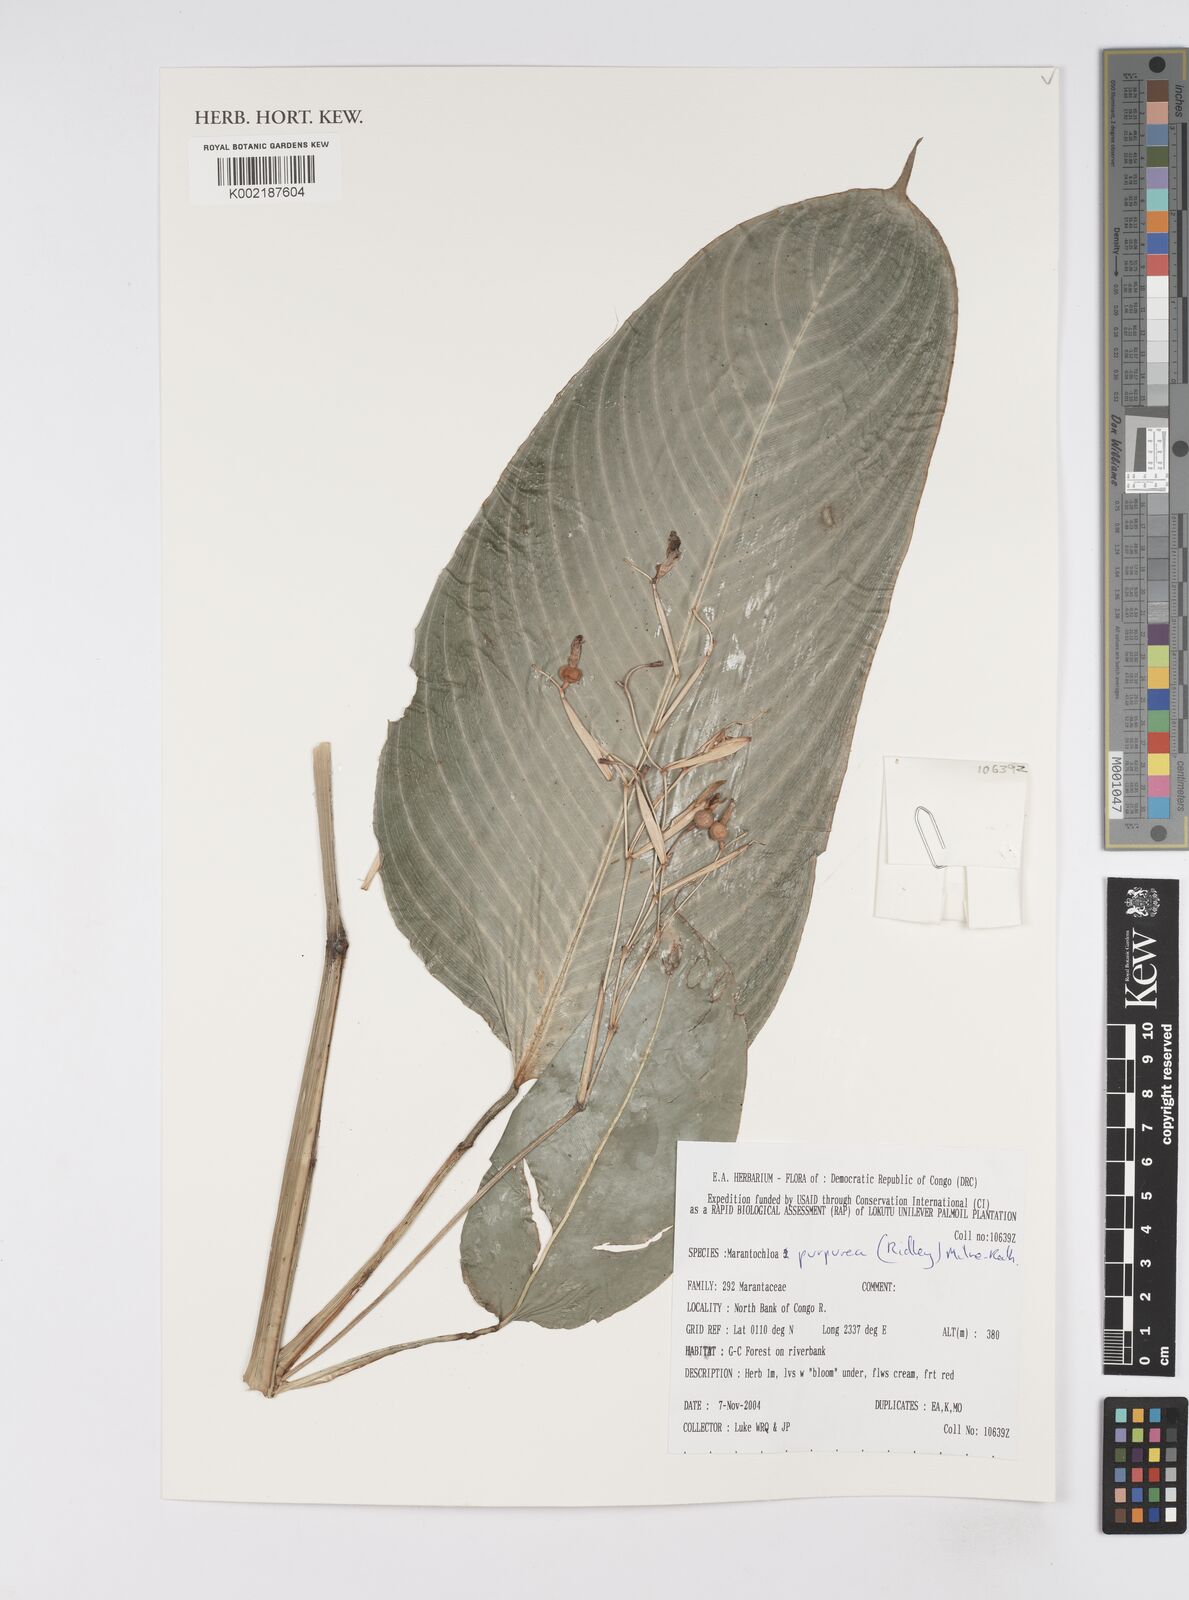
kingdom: Plantae
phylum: Tracheophyta
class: Liliopsida
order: Zingiberales
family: Marantaceae
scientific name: Marantaceae
